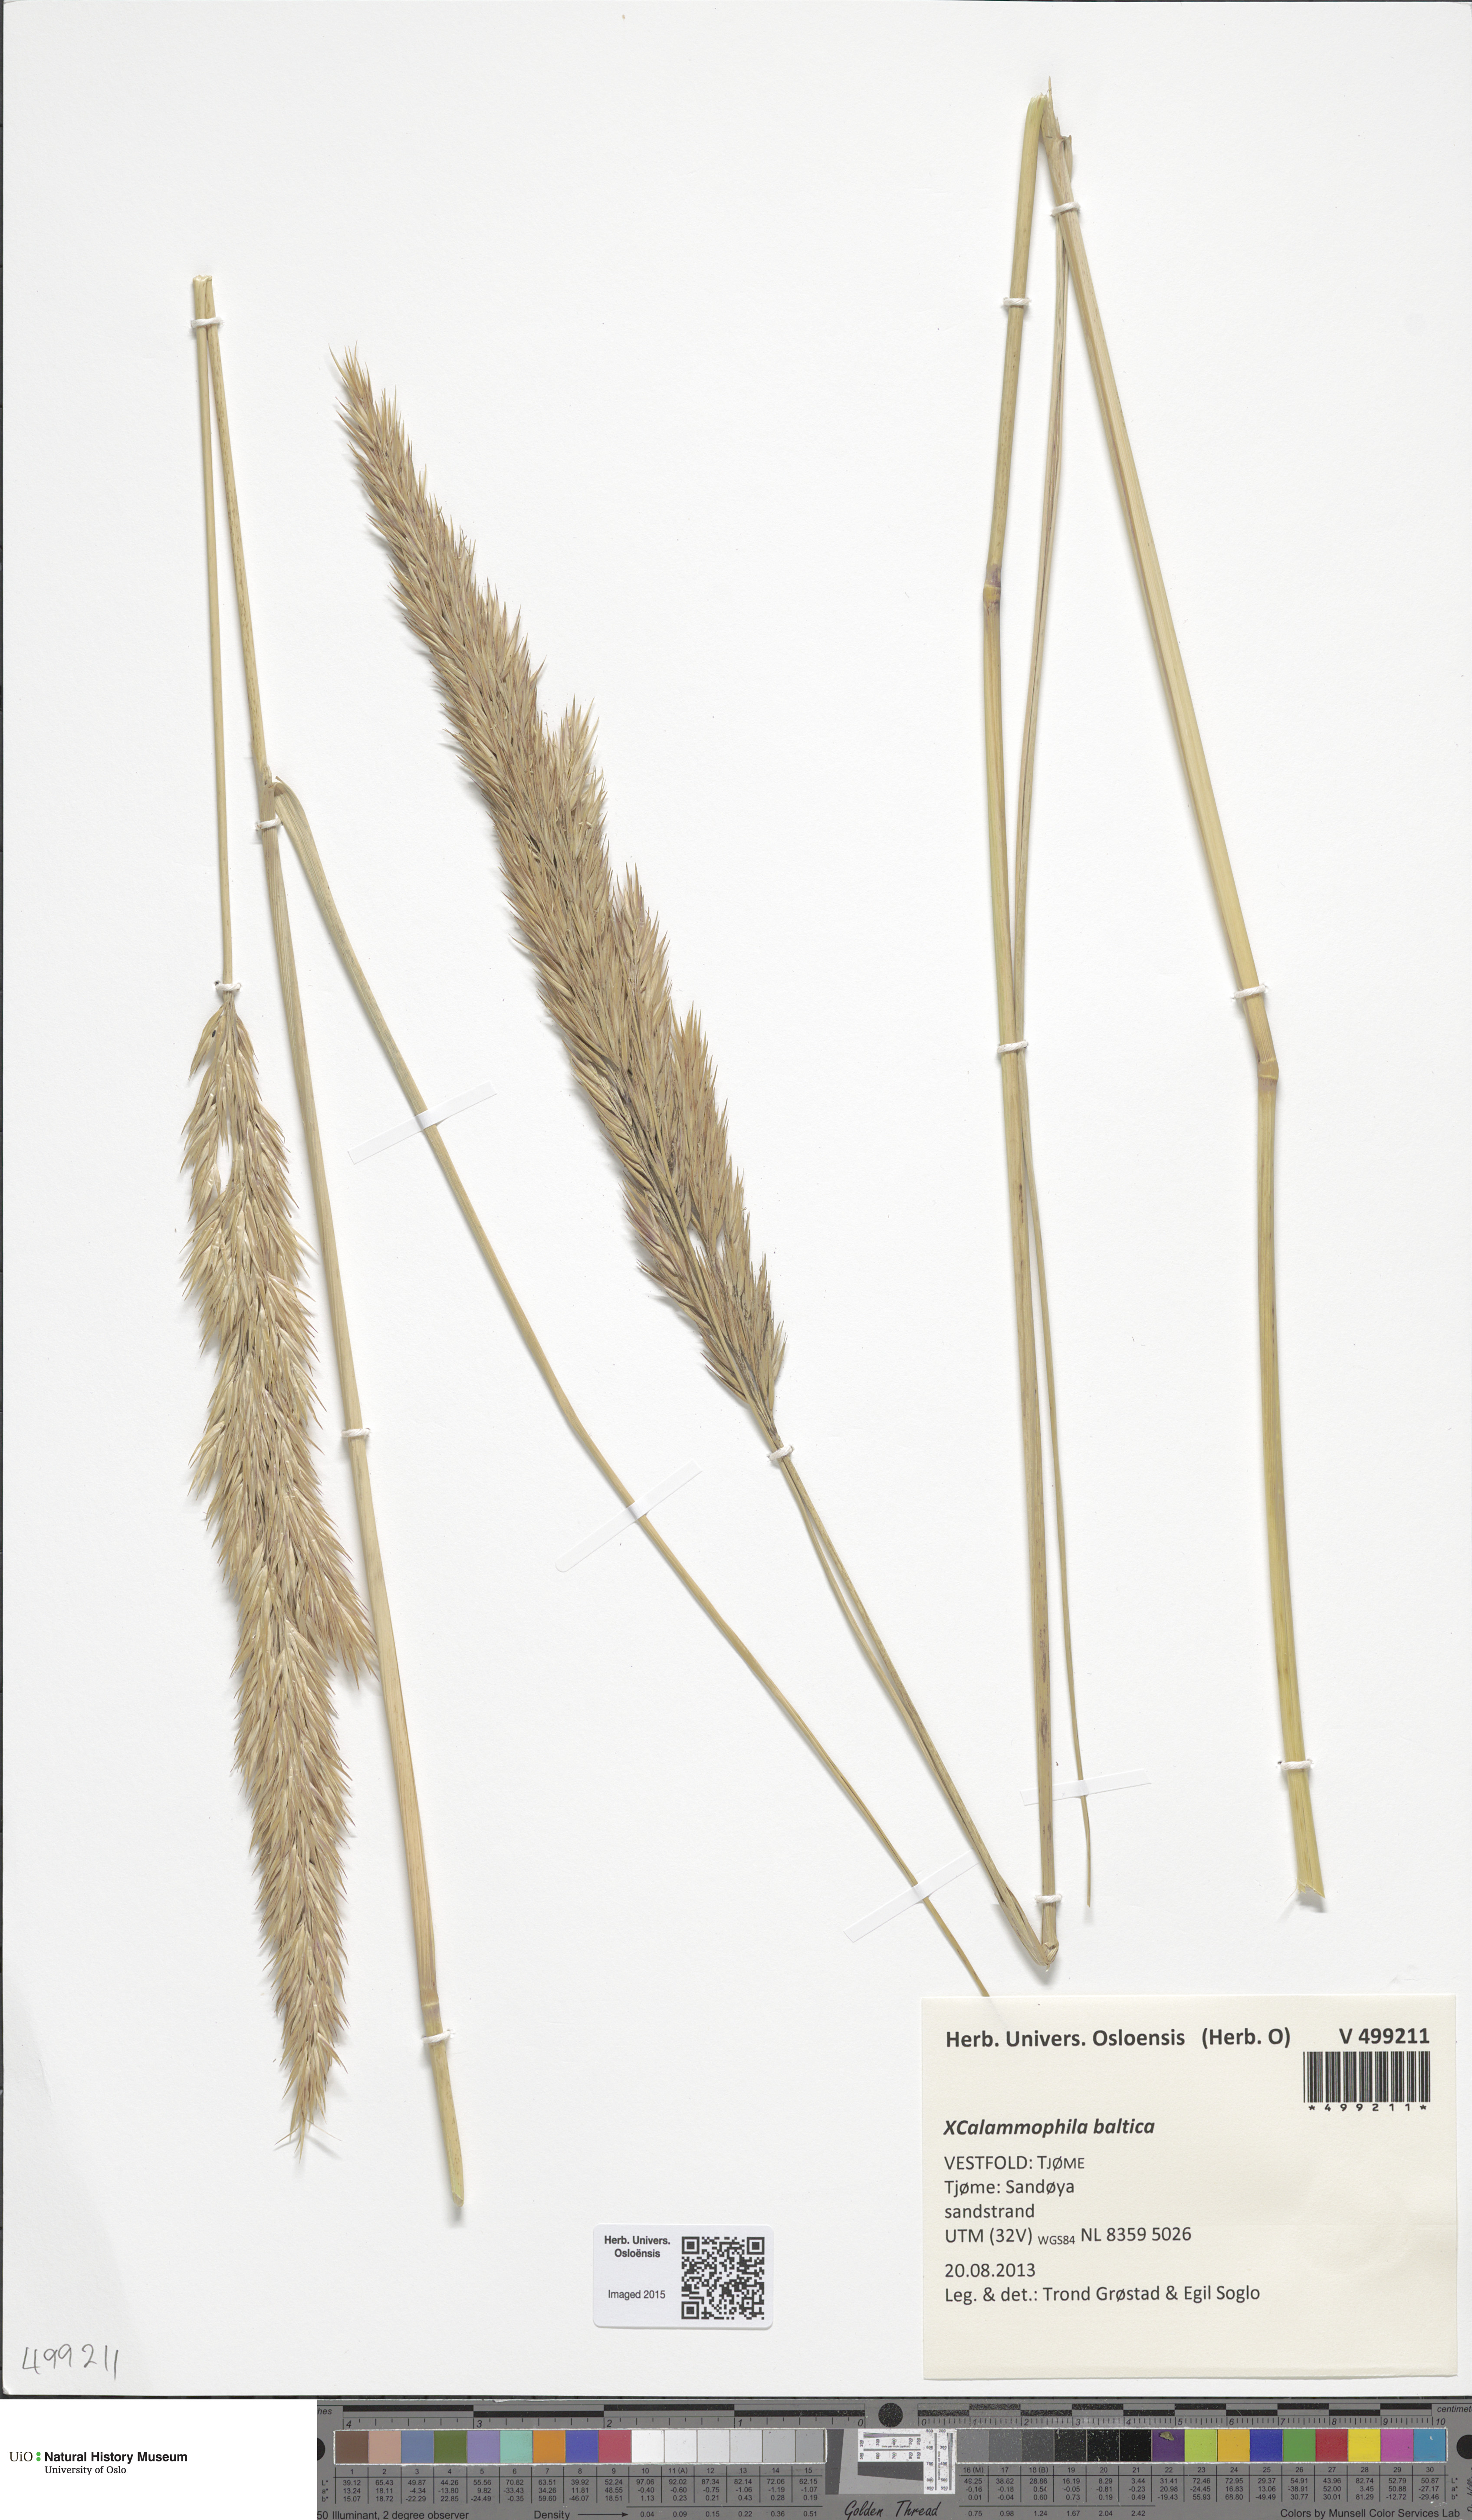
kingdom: Plantae
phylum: Tracheophyta
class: Liliopsida
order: Poales
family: Poaceae
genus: Calamagrostis
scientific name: Calamagrostis baltica
